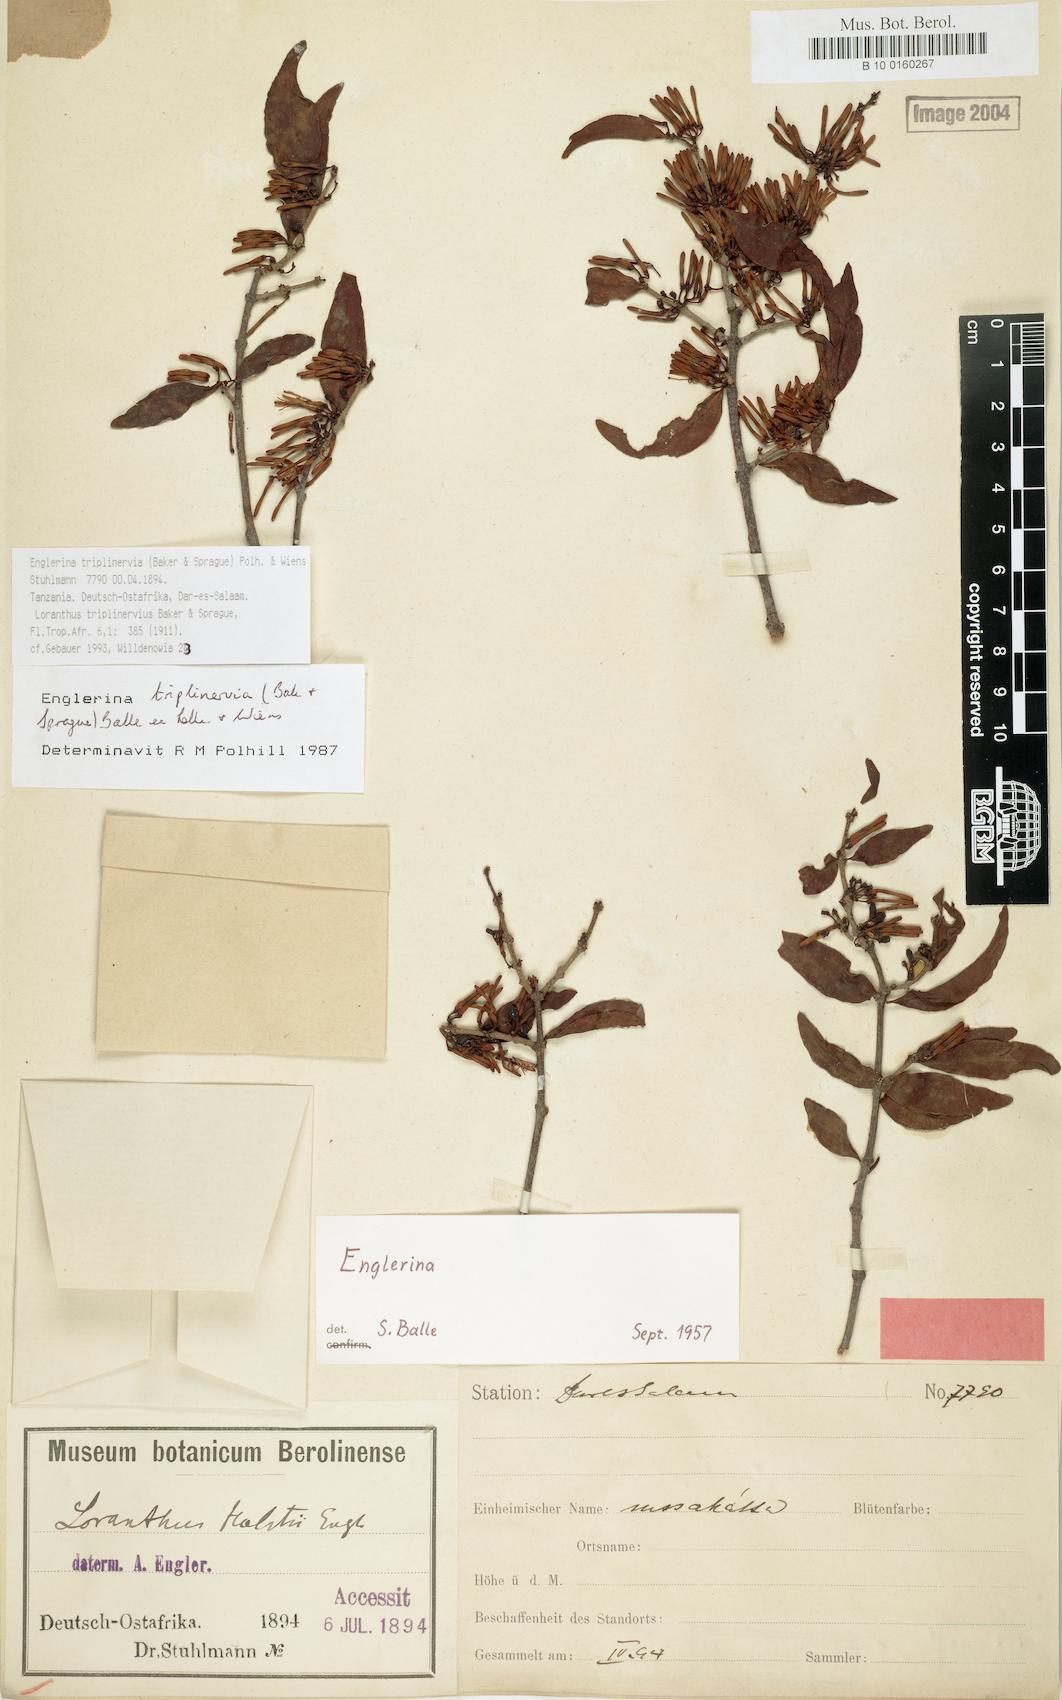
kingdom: Plantae
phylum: Tracheophyta
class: Magnoliopsida
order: Santalales
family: Loranthaceae
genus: Englerina
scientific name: Englerina triplinervia
